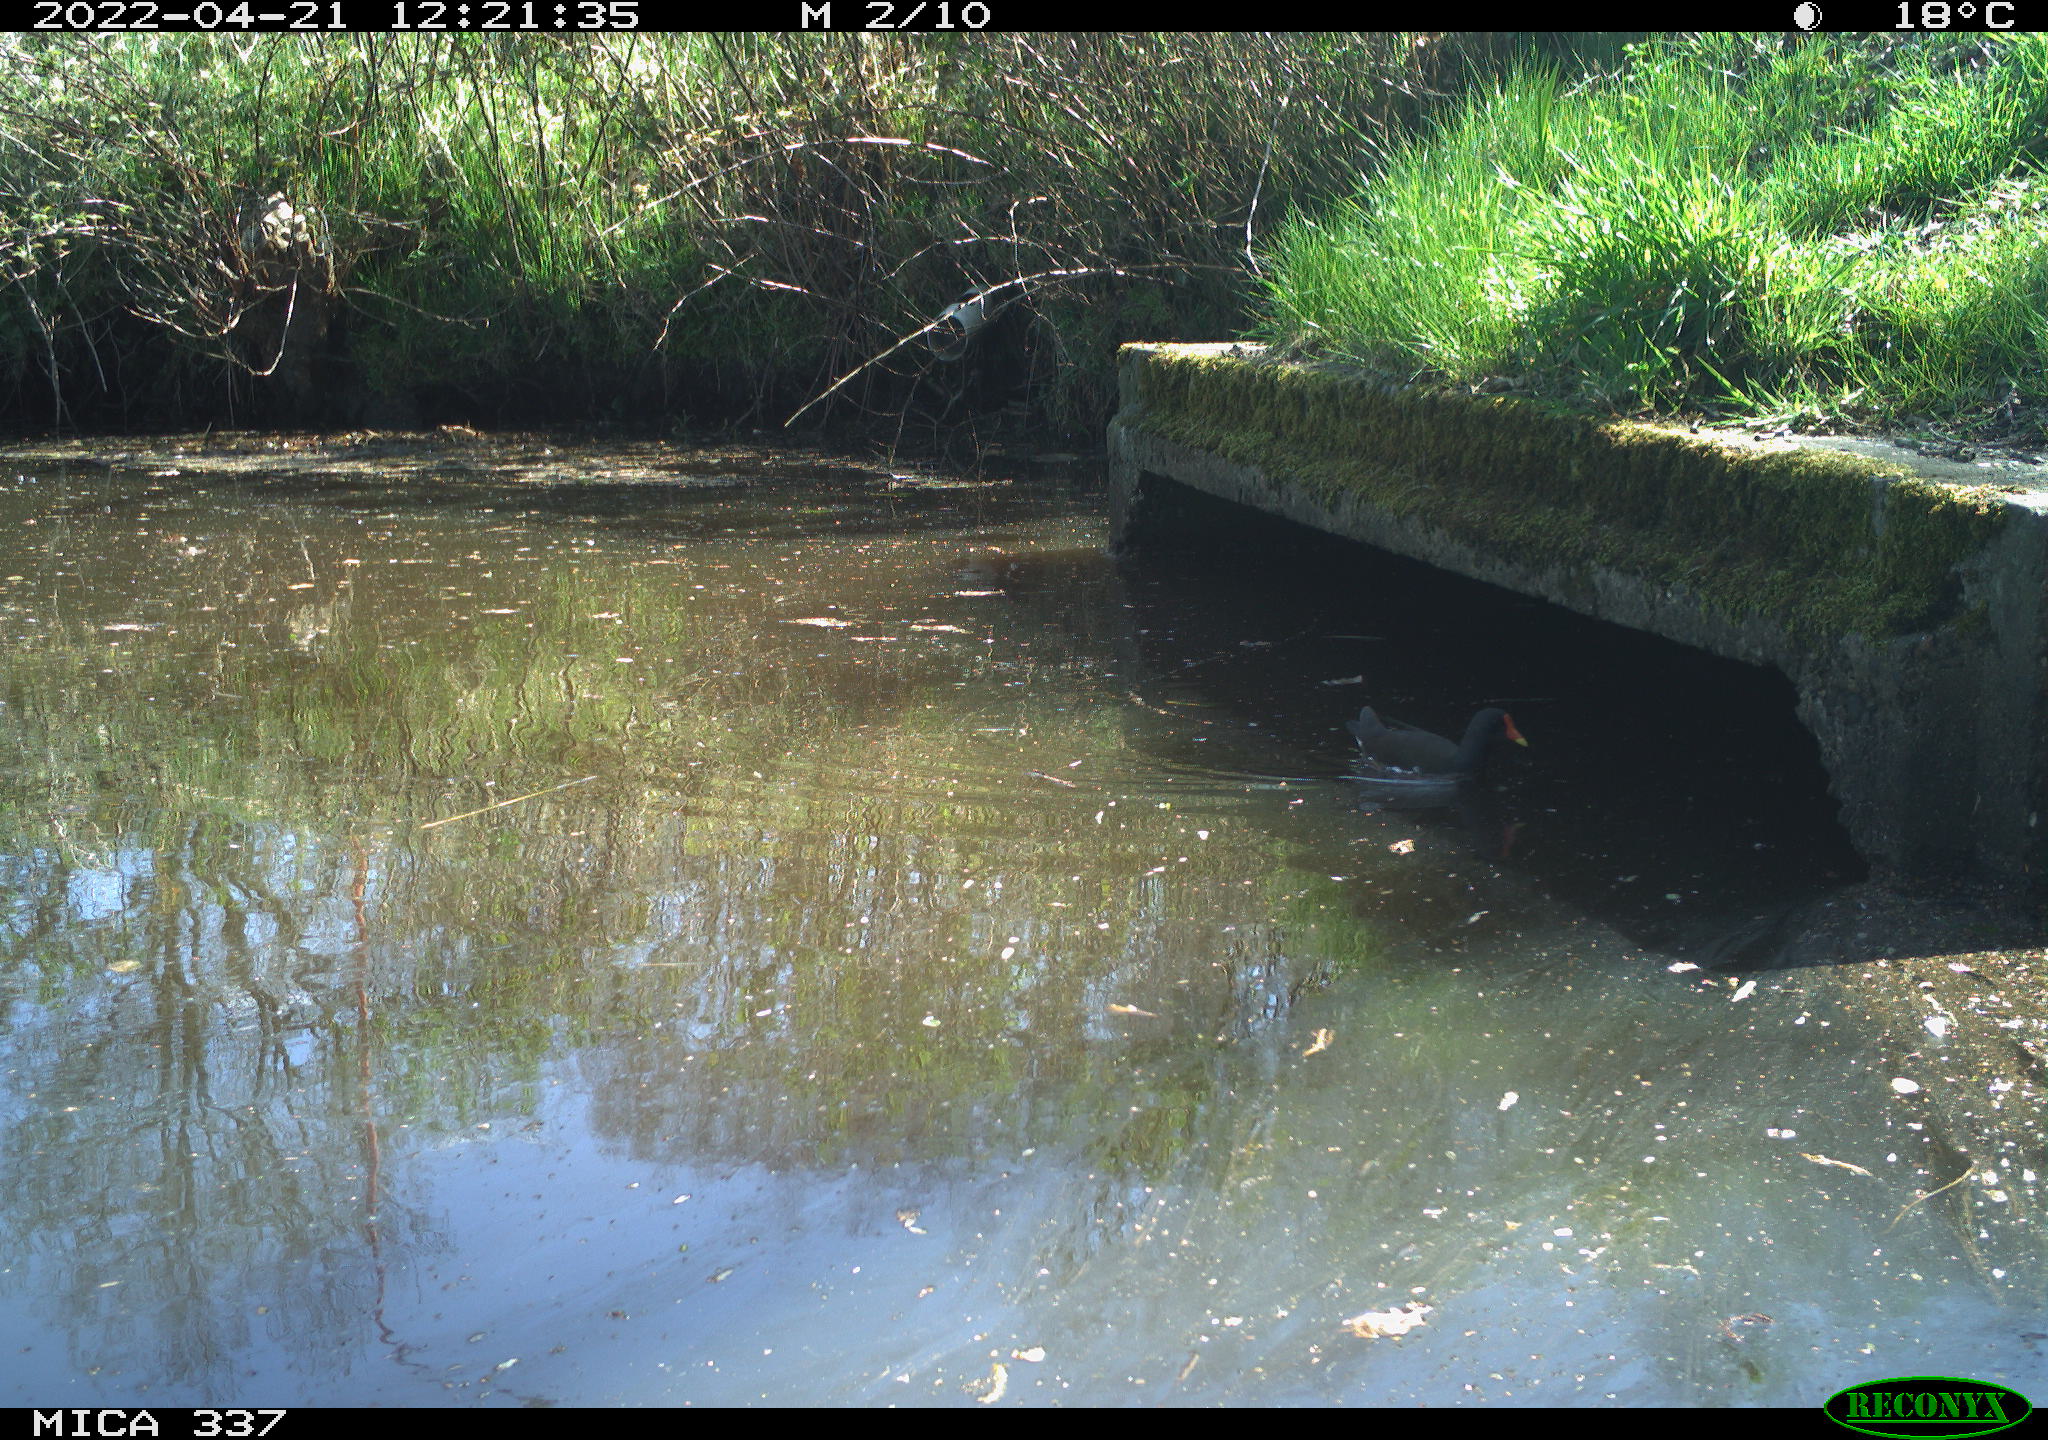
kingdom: Animalia
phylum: Chordata
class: Aves
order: Gruiformes
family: Rallidae
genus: Gallinula
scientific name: Gallinula chloropus
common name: Common moorhen
